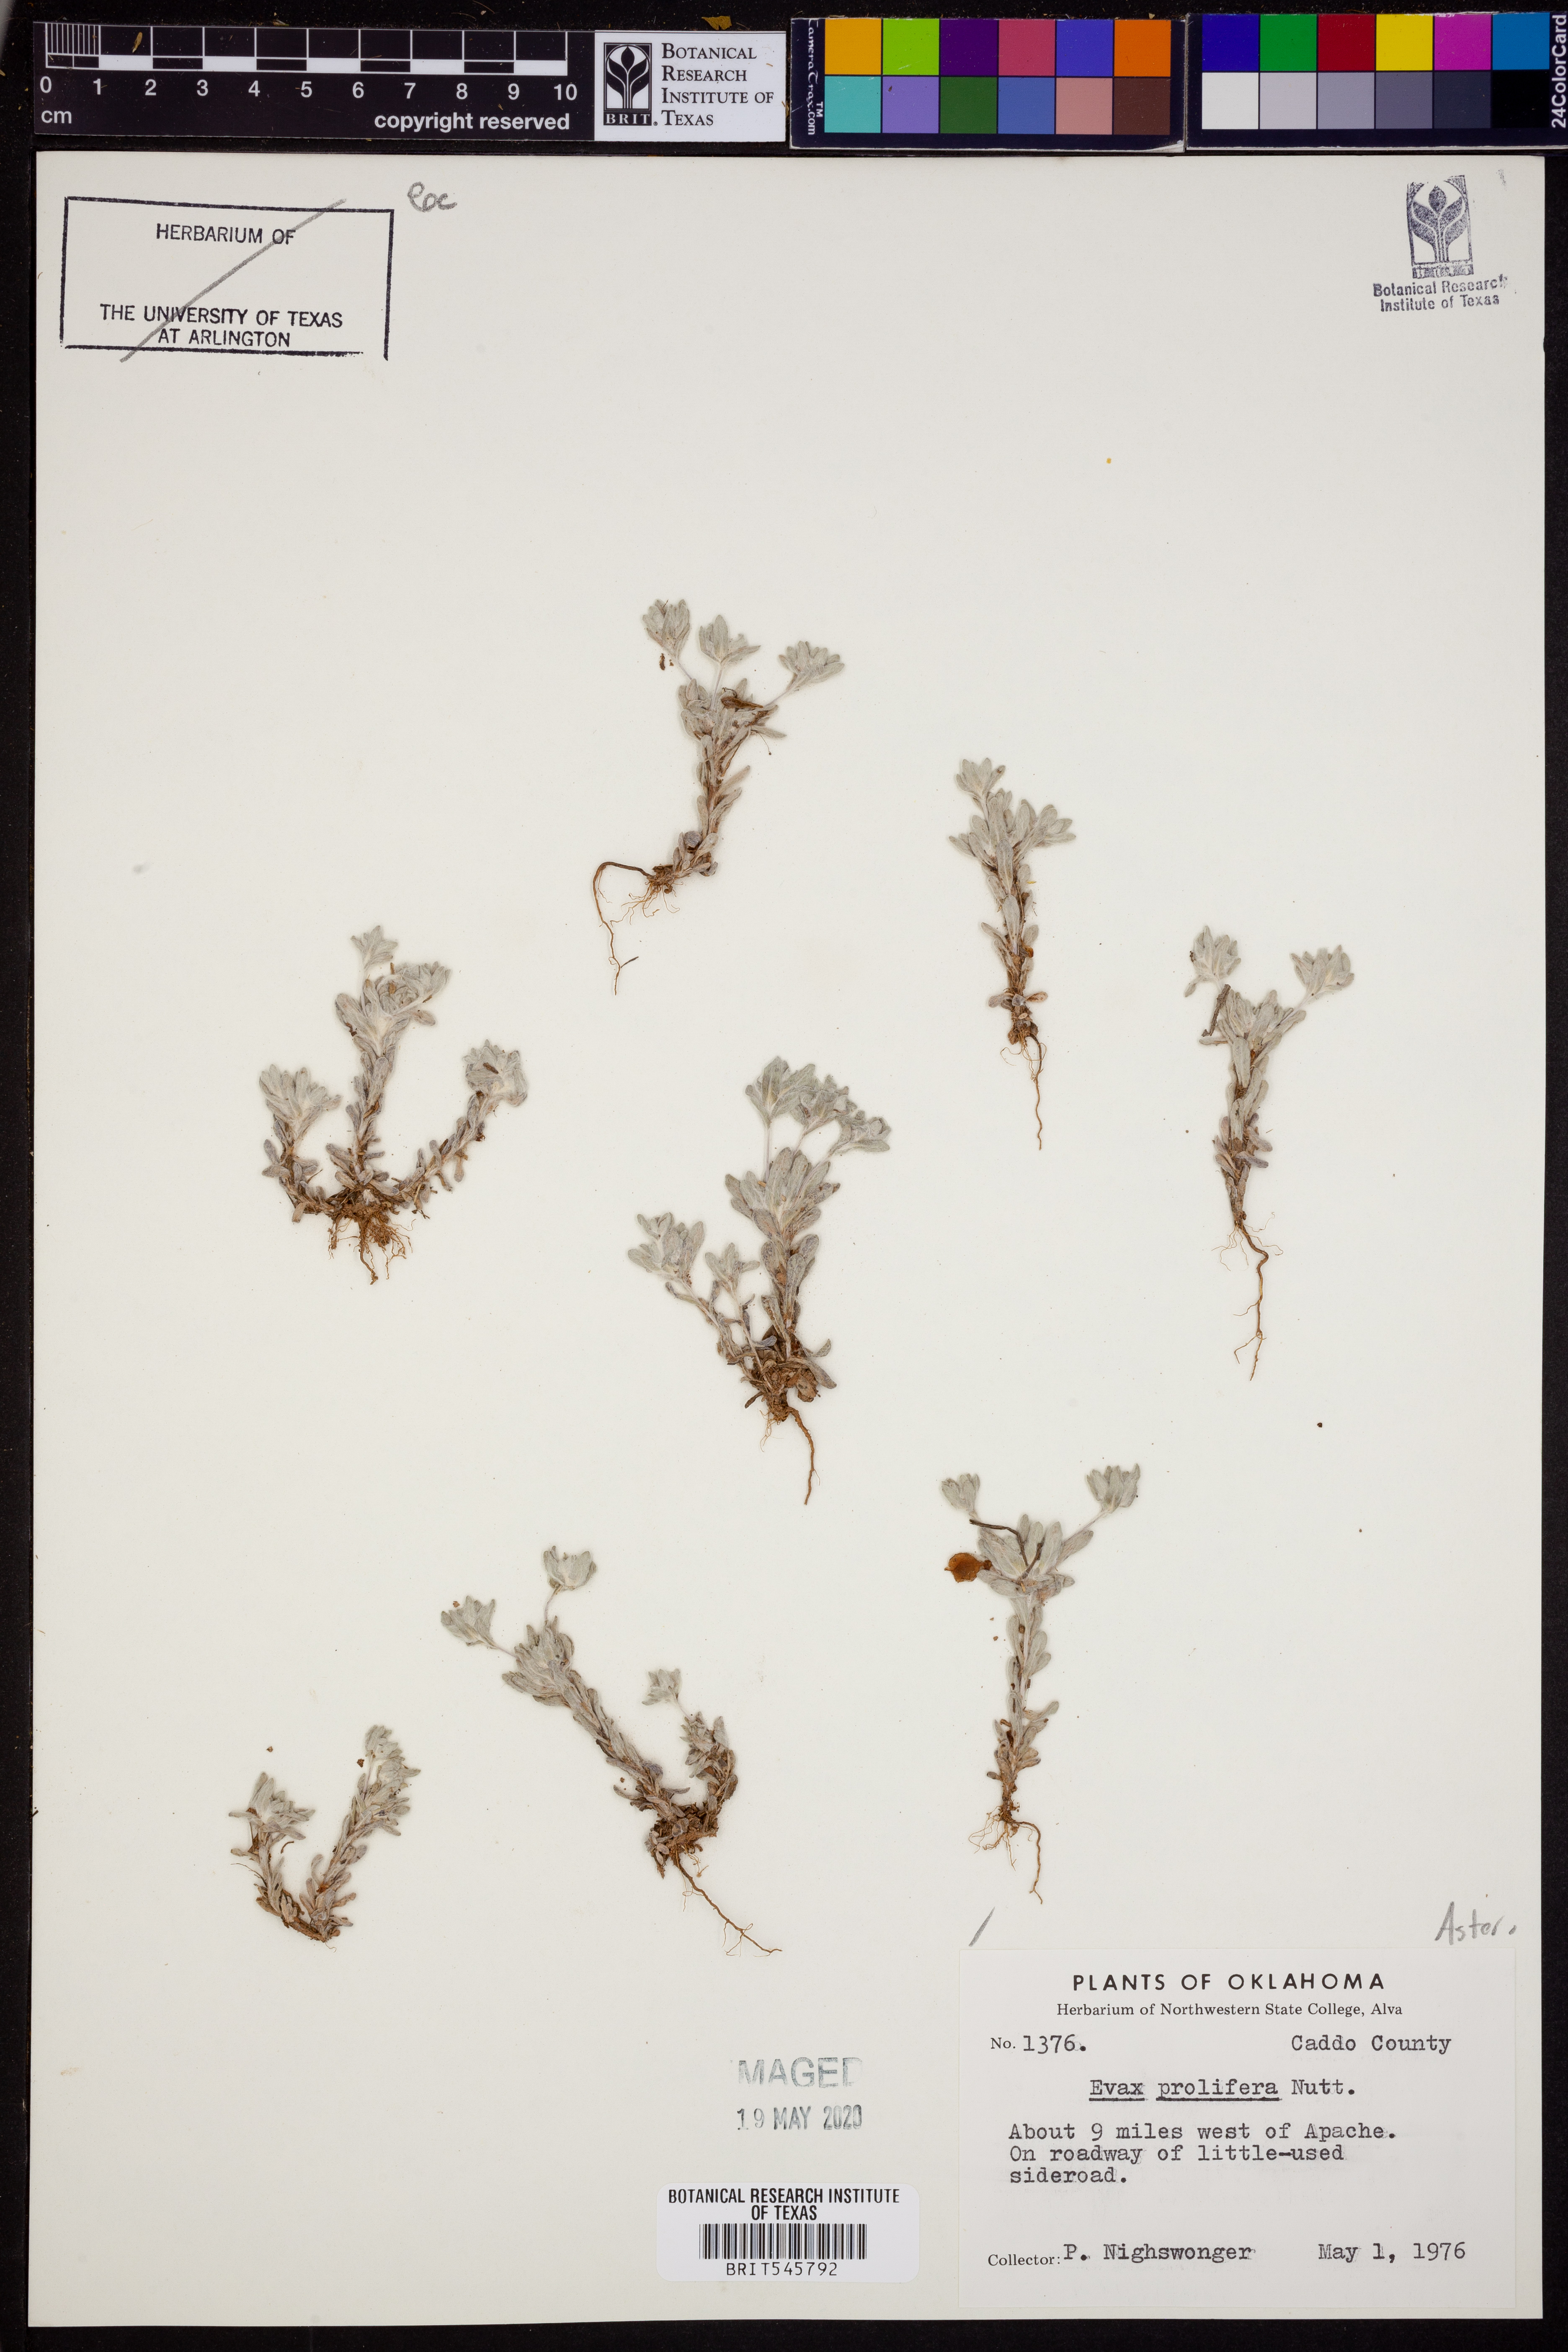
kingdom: Plantae
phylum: Tracheophyta
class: Magnoliopsida
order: Asterales
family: Asteraceae
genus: Diaperia
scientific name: Diaperia prolifera
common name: Big-head rabbit-tobacco
